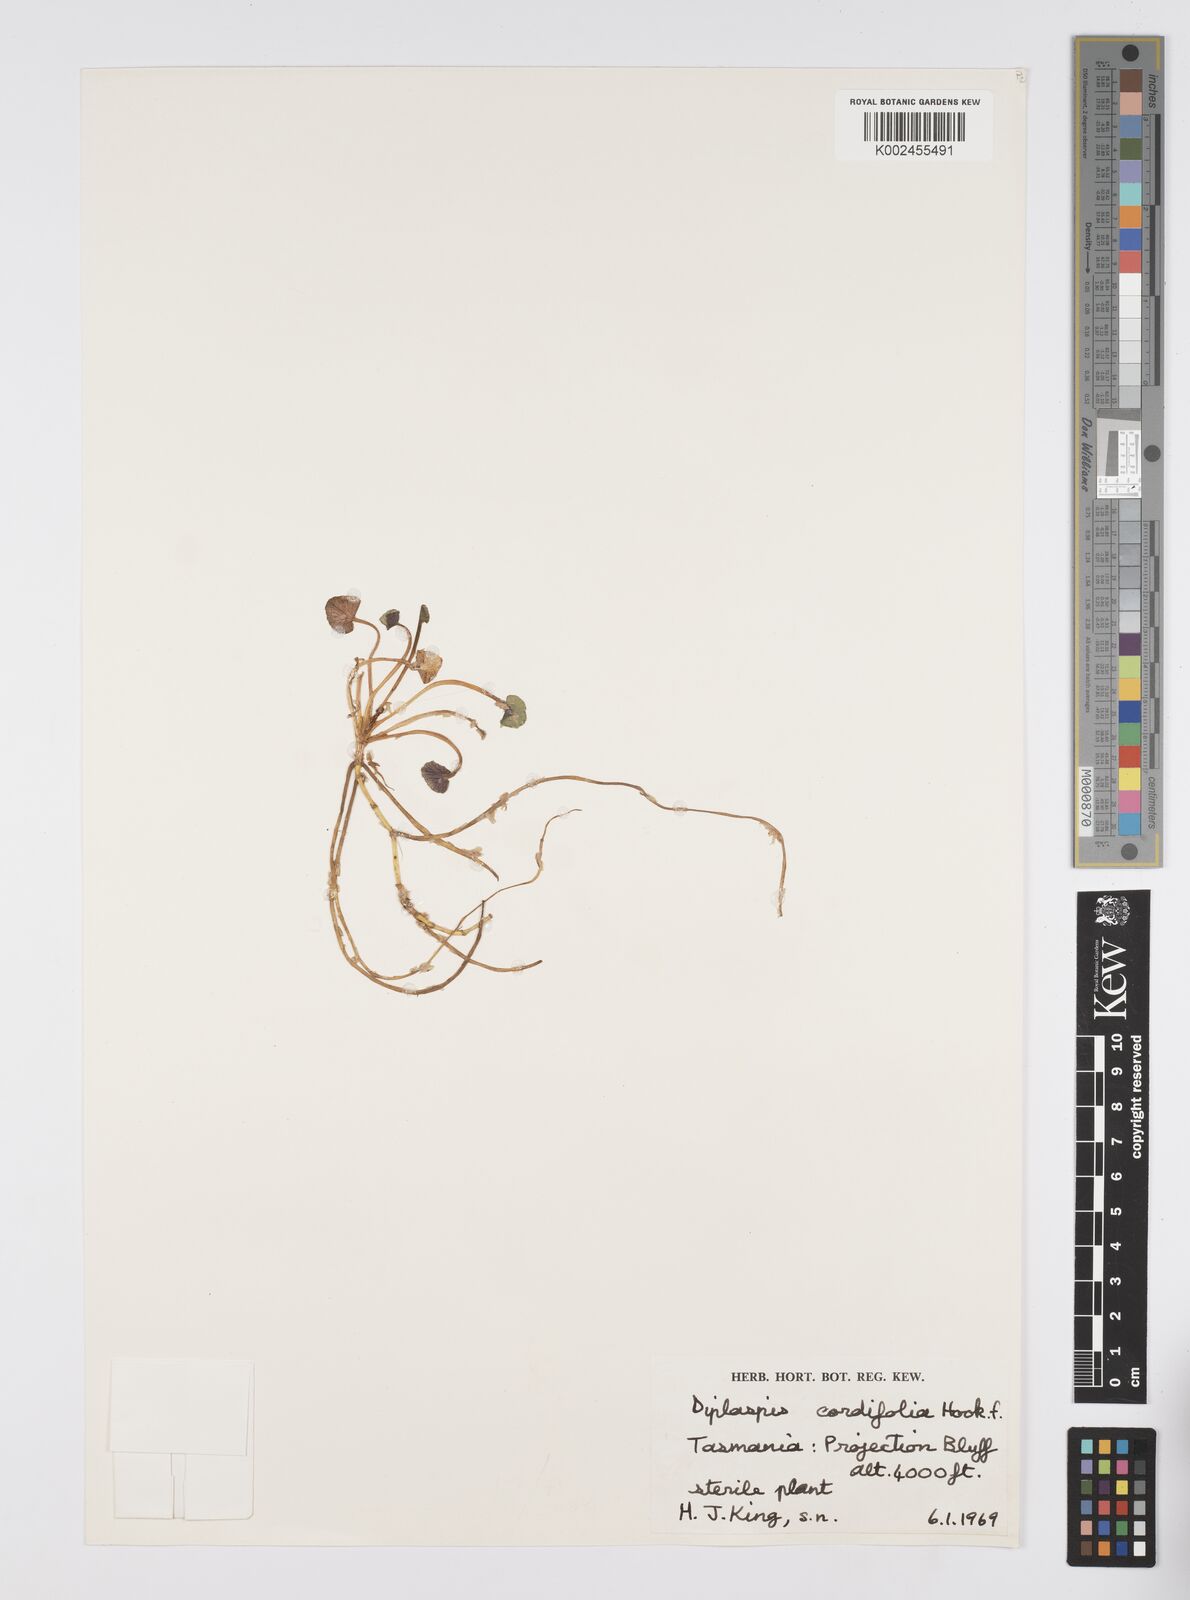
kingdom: Plantae
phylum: Tracheophyta
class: Magnoliopsida
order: Apiales
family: Apiaceae
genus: Diplaspis
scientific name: Diplaspis cordifolia
